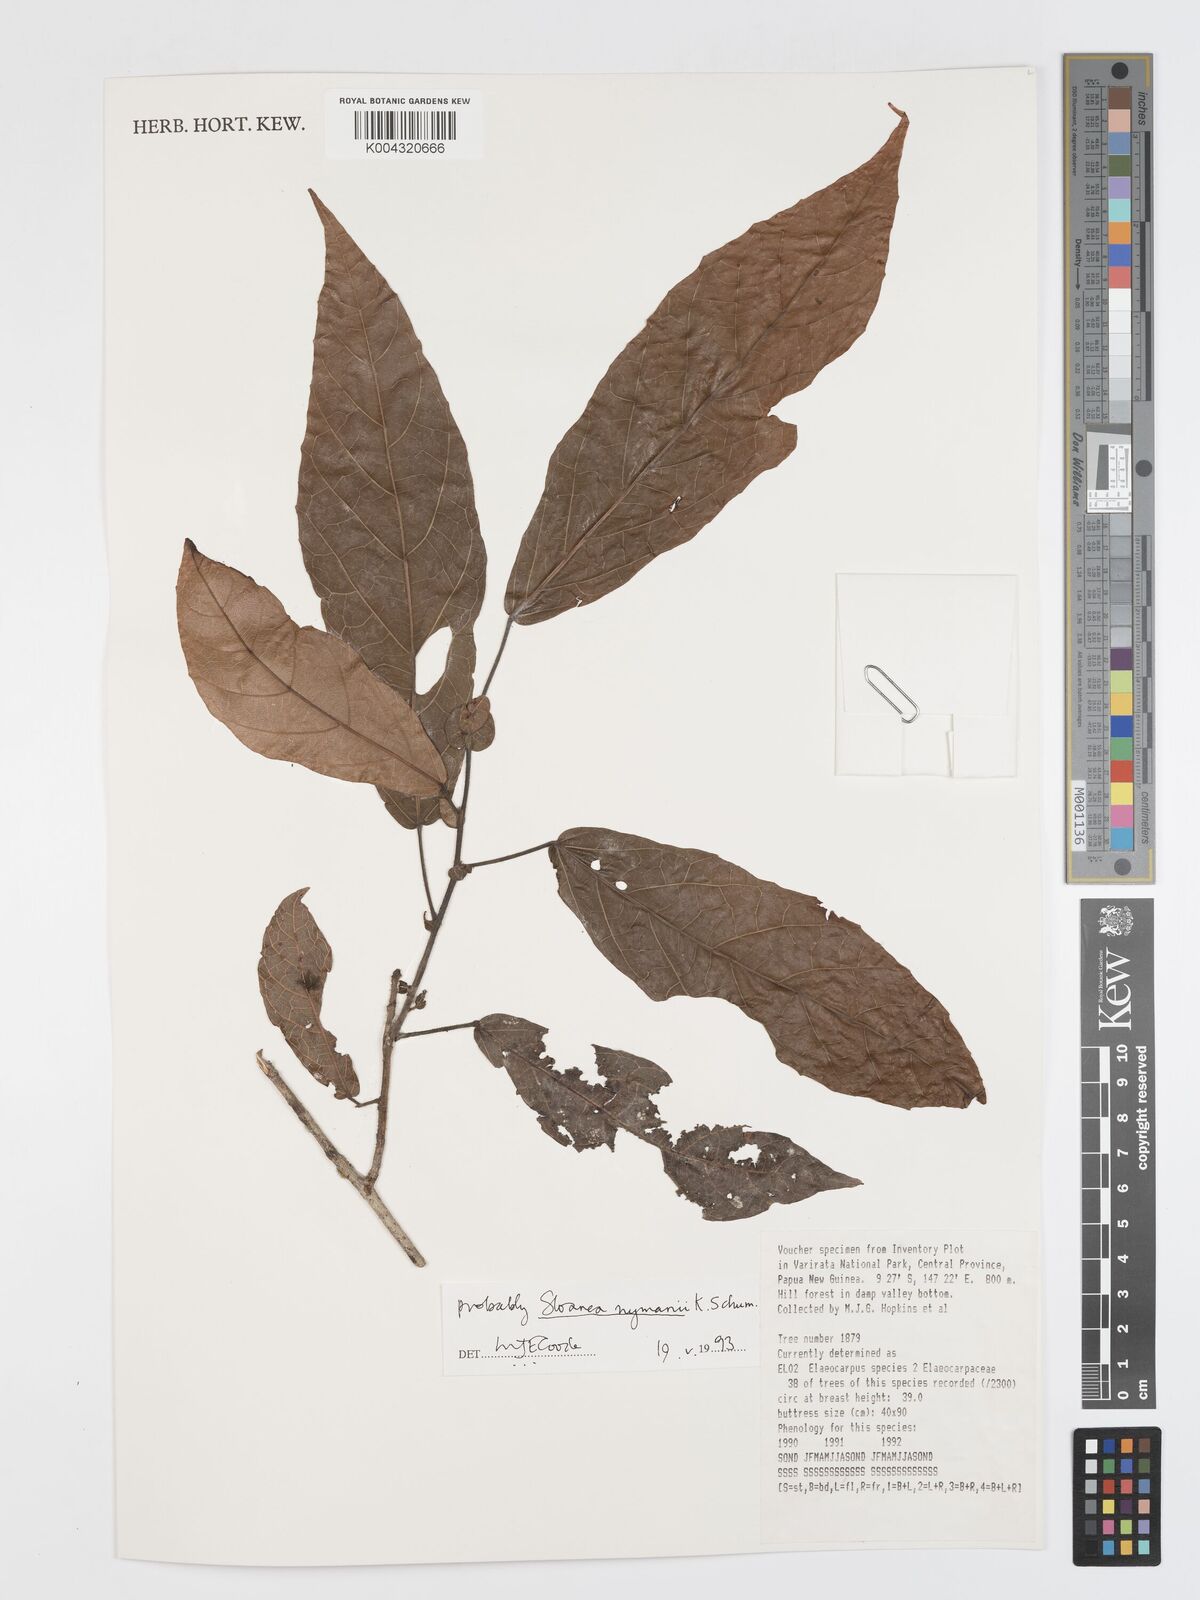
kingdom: Plantae
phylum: Tracheophyta
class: Magnoliopsida
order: Oxalidales
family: Elaeocarpaceae
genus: Sloanea
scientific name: Sloanea nymanii
